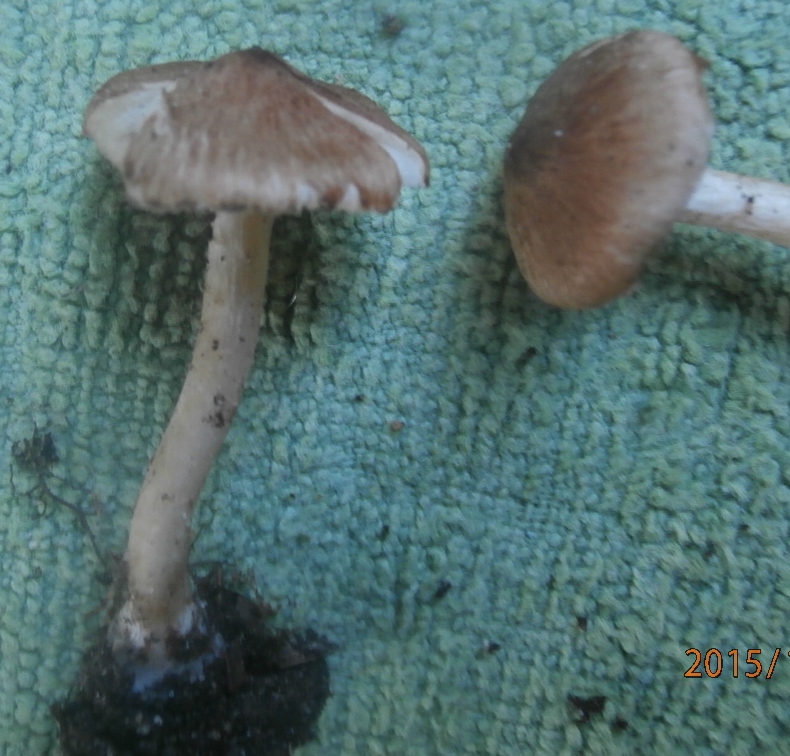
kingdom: Fungi
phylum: Basidiomycota
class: Agaricomycetes
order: Agaricales
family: Inocybaceae
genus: Inocybe
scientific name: Inocybe
